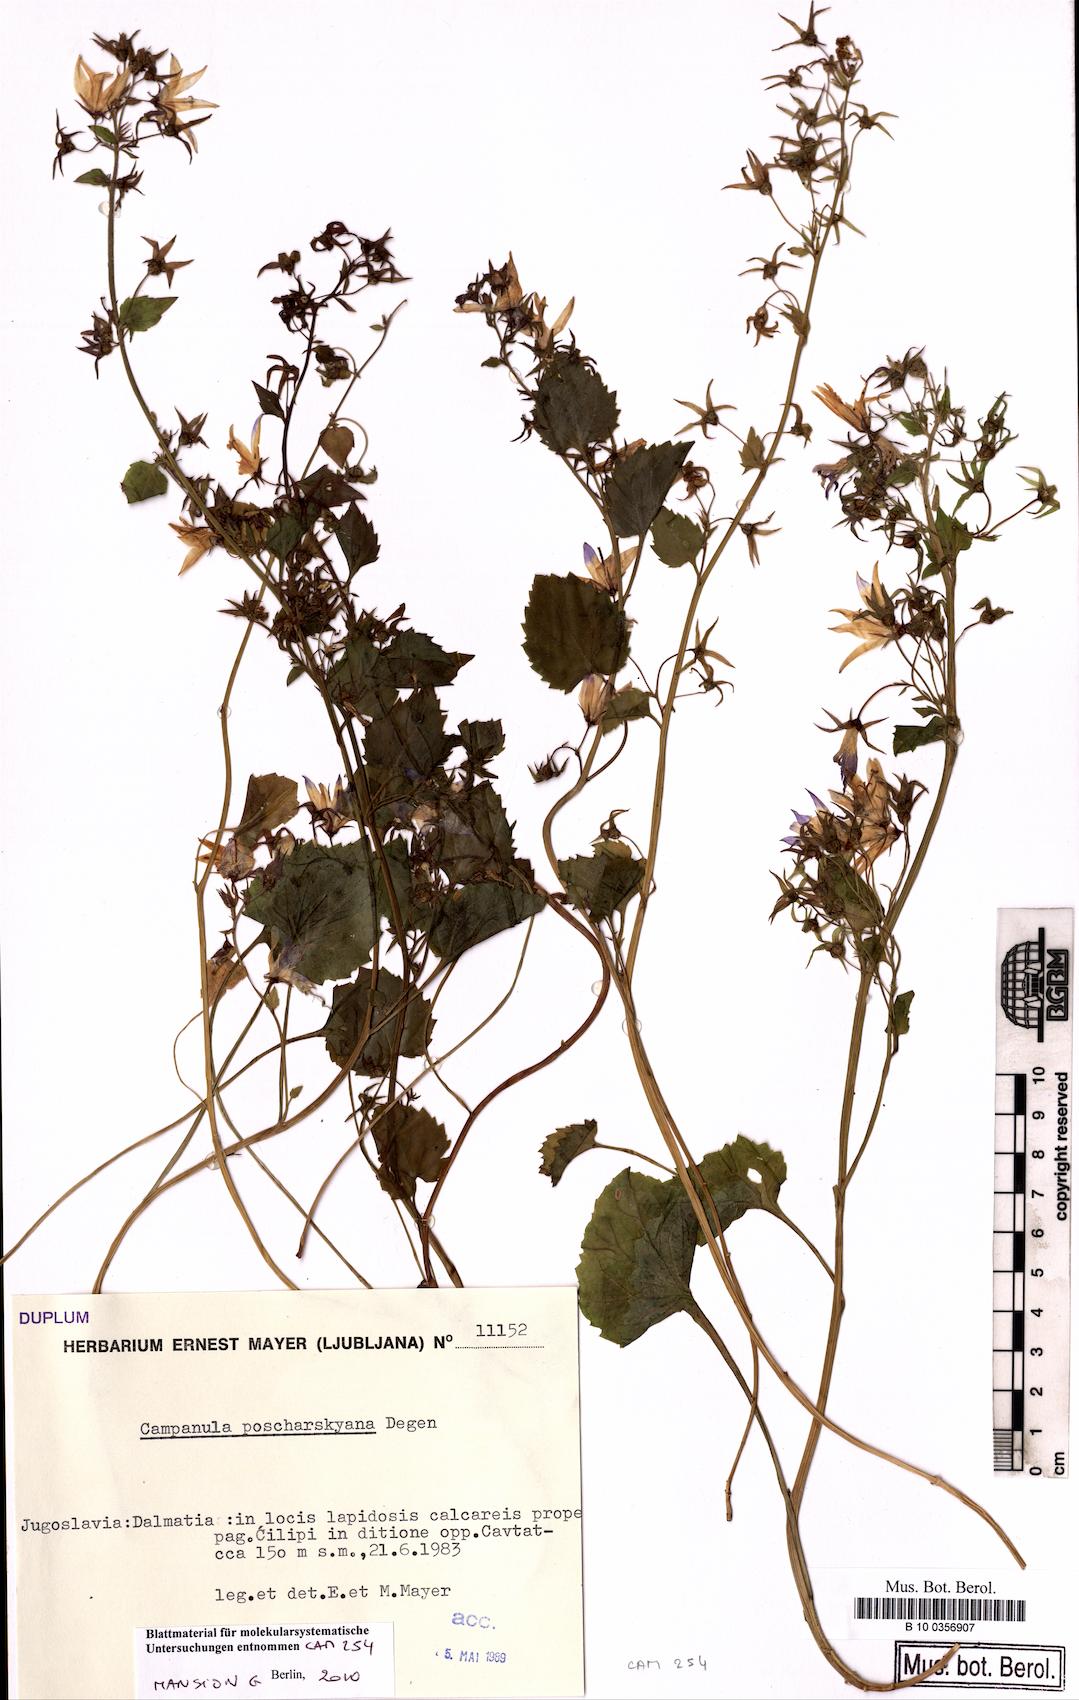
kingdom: Plantae
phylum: Tracheophyta
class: Magnoliopsida
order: Asterales
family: Campanulaceae
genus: Campanula
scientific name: Campanula poscharskyana
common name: Trailing bellflower
